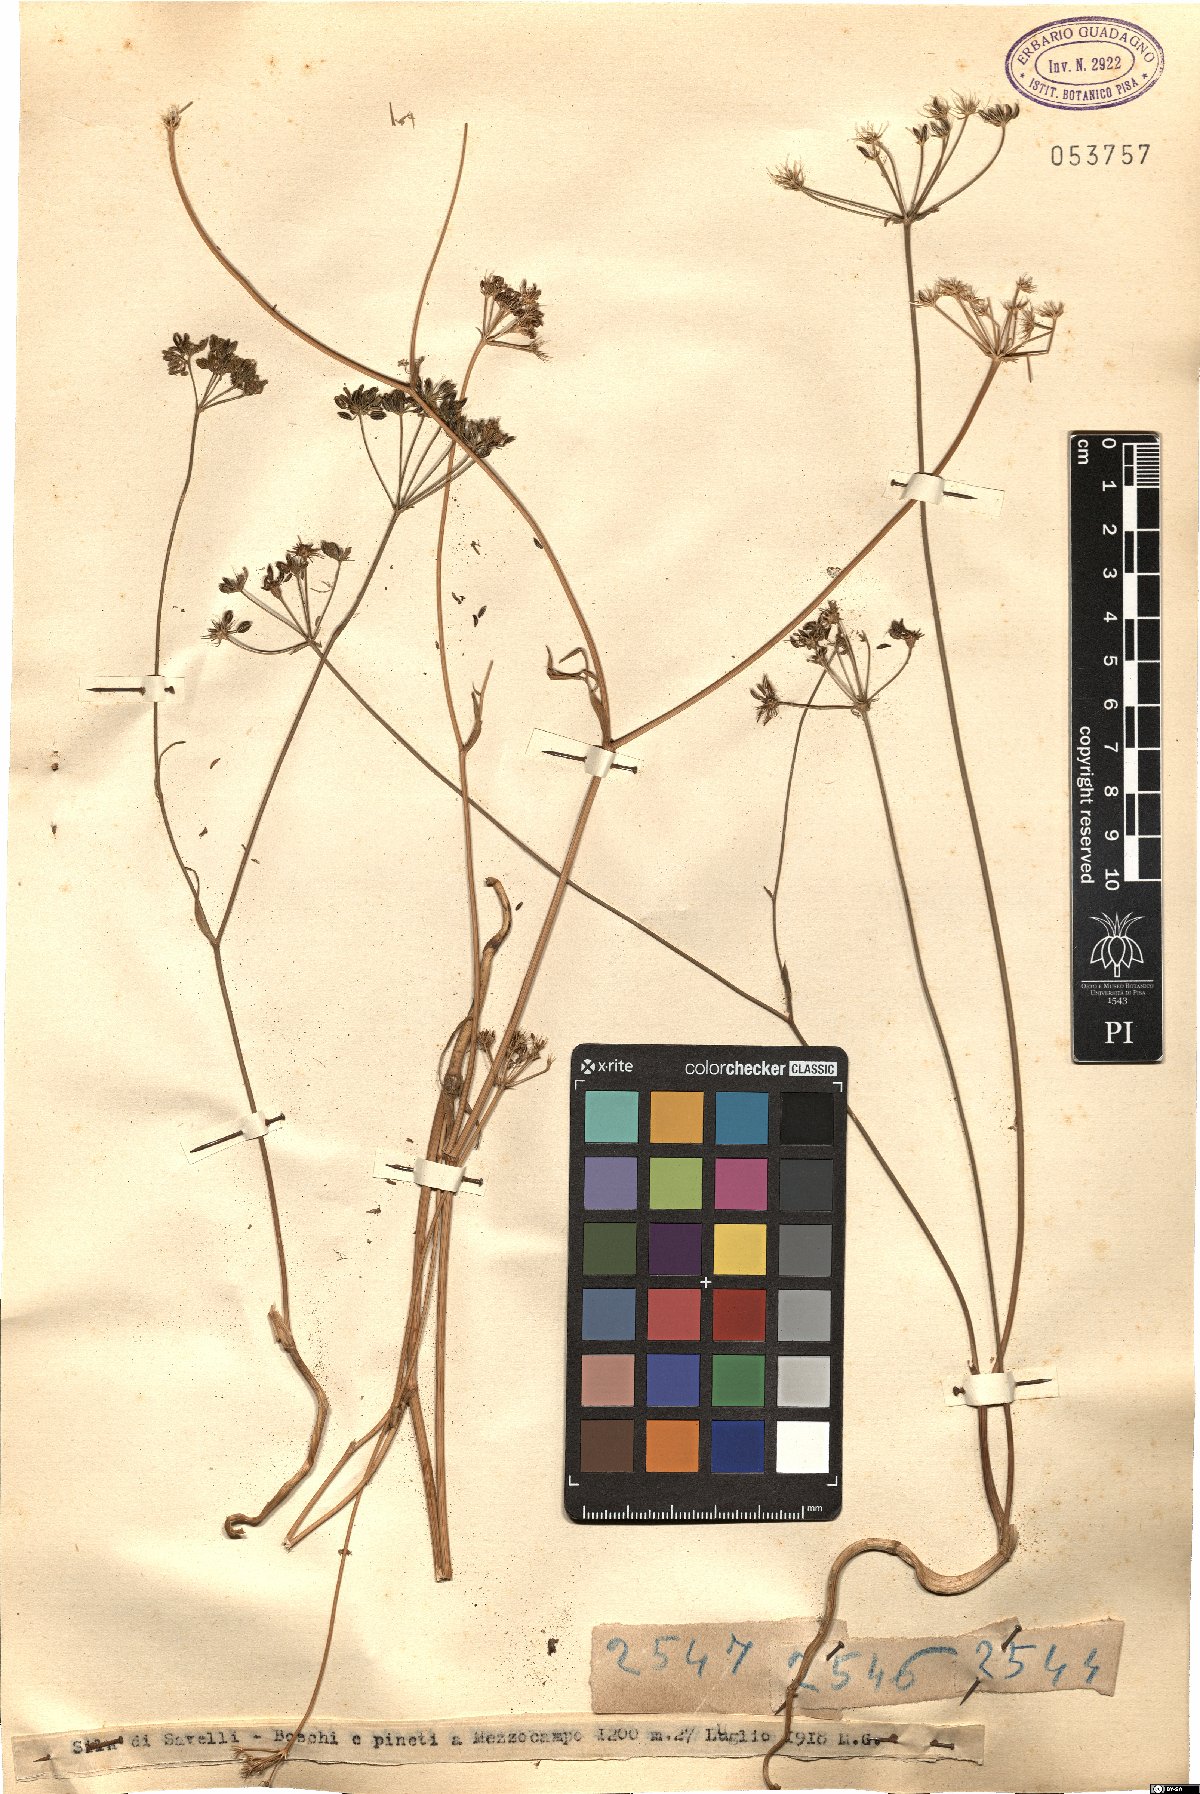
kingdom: Plantae
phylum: Tracheophyta
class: Magnoliopsida
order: Apiales
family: Apiaceae
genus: Bunium
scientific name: Bunium
